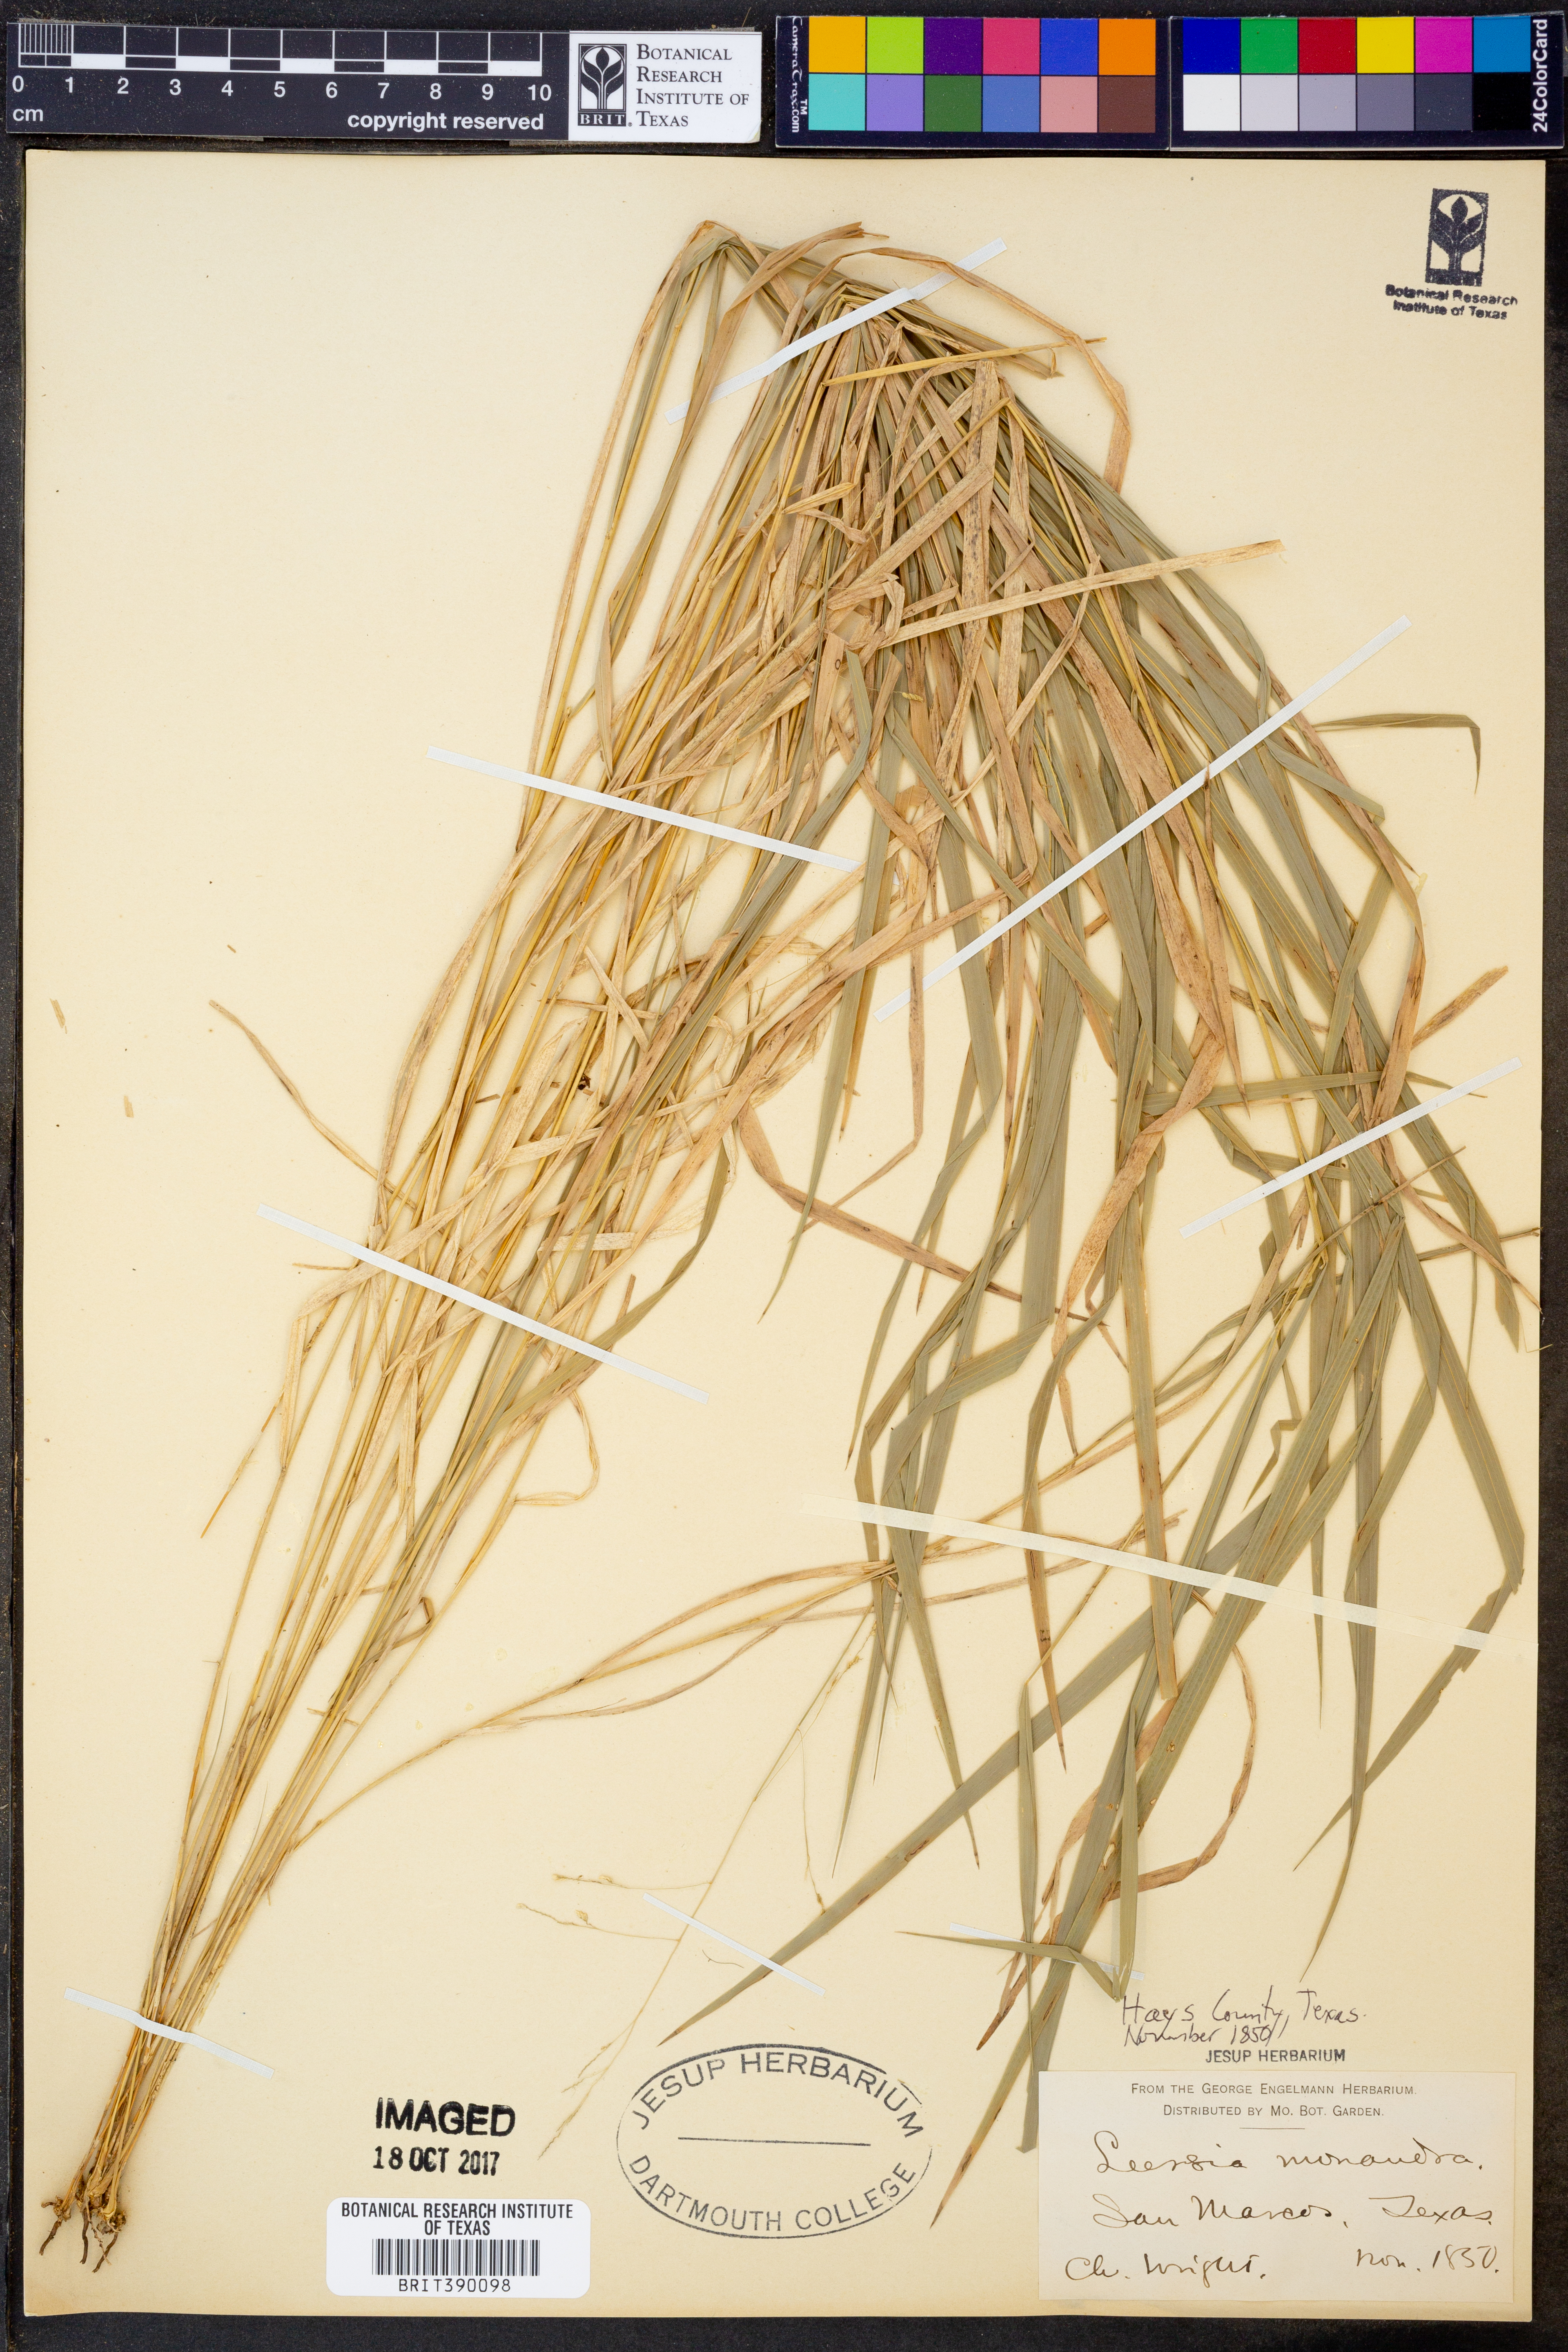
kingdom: Plantae
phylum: Tracheophyta
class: Liliopsida
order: Poales
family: Poaceae
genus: Leersia
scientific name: Leersia monandra
